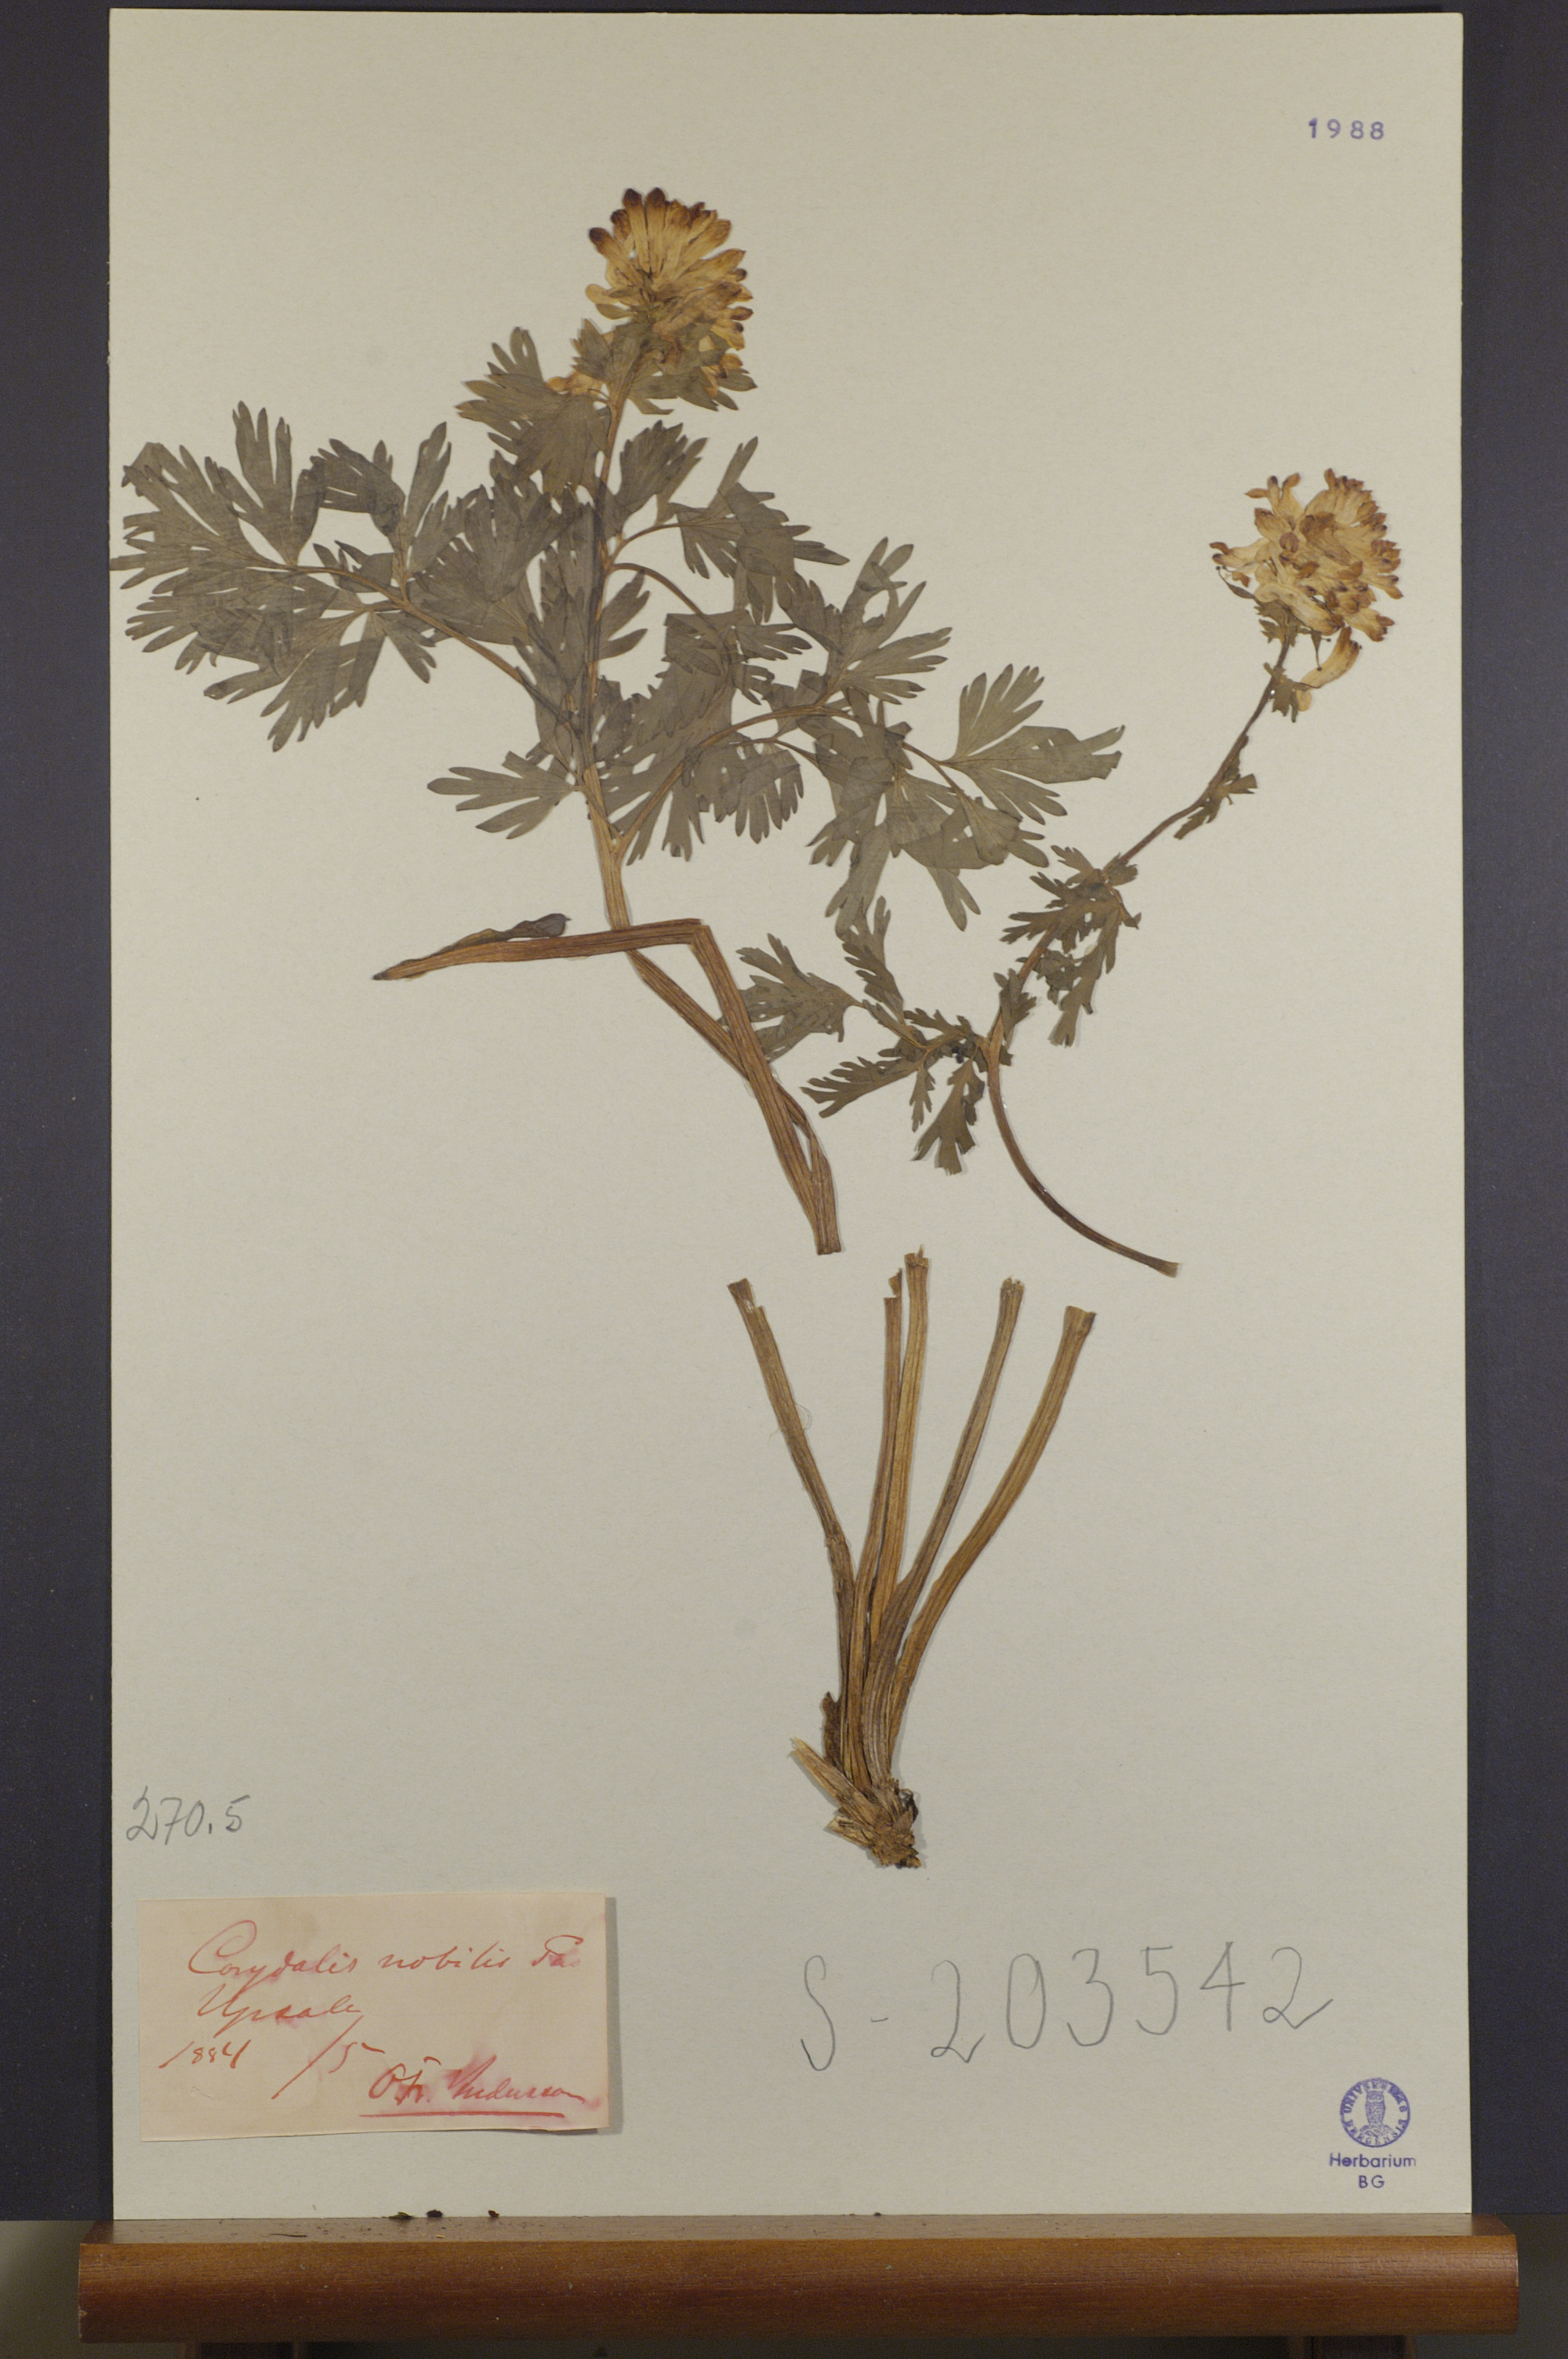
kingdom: Plantae
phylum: Tracheophyta
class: Magnoliopsida
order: Ranunculales
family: Papaveraceae
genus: Corydalis
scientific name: Corydalis nobilis
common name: Siberian corydalis
